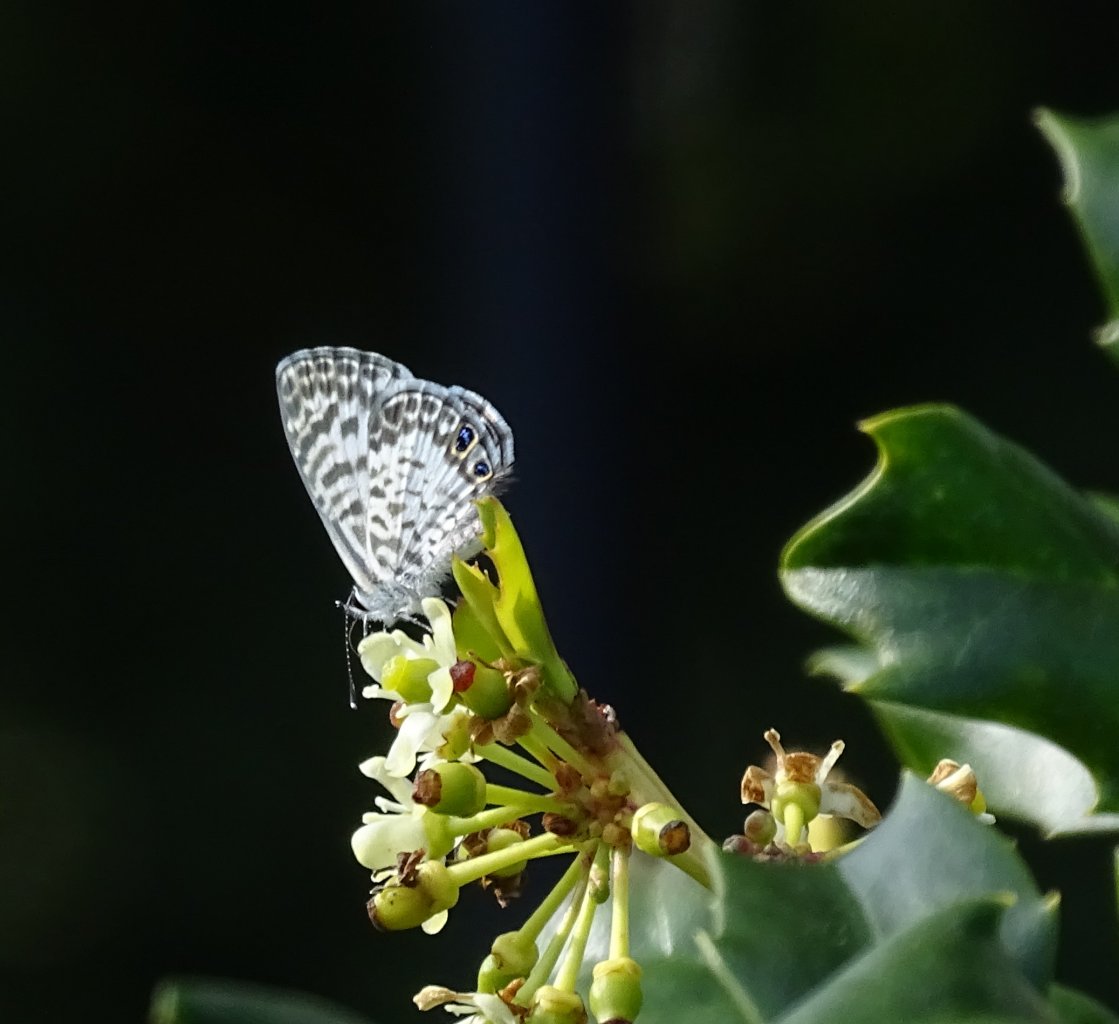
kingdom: Animalia
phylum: Arthropoda
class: Insecta
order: Lepidoptera
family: Lycaenidae
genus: Leptotes
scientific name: Leptotes cassius
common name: Cassius Blue
